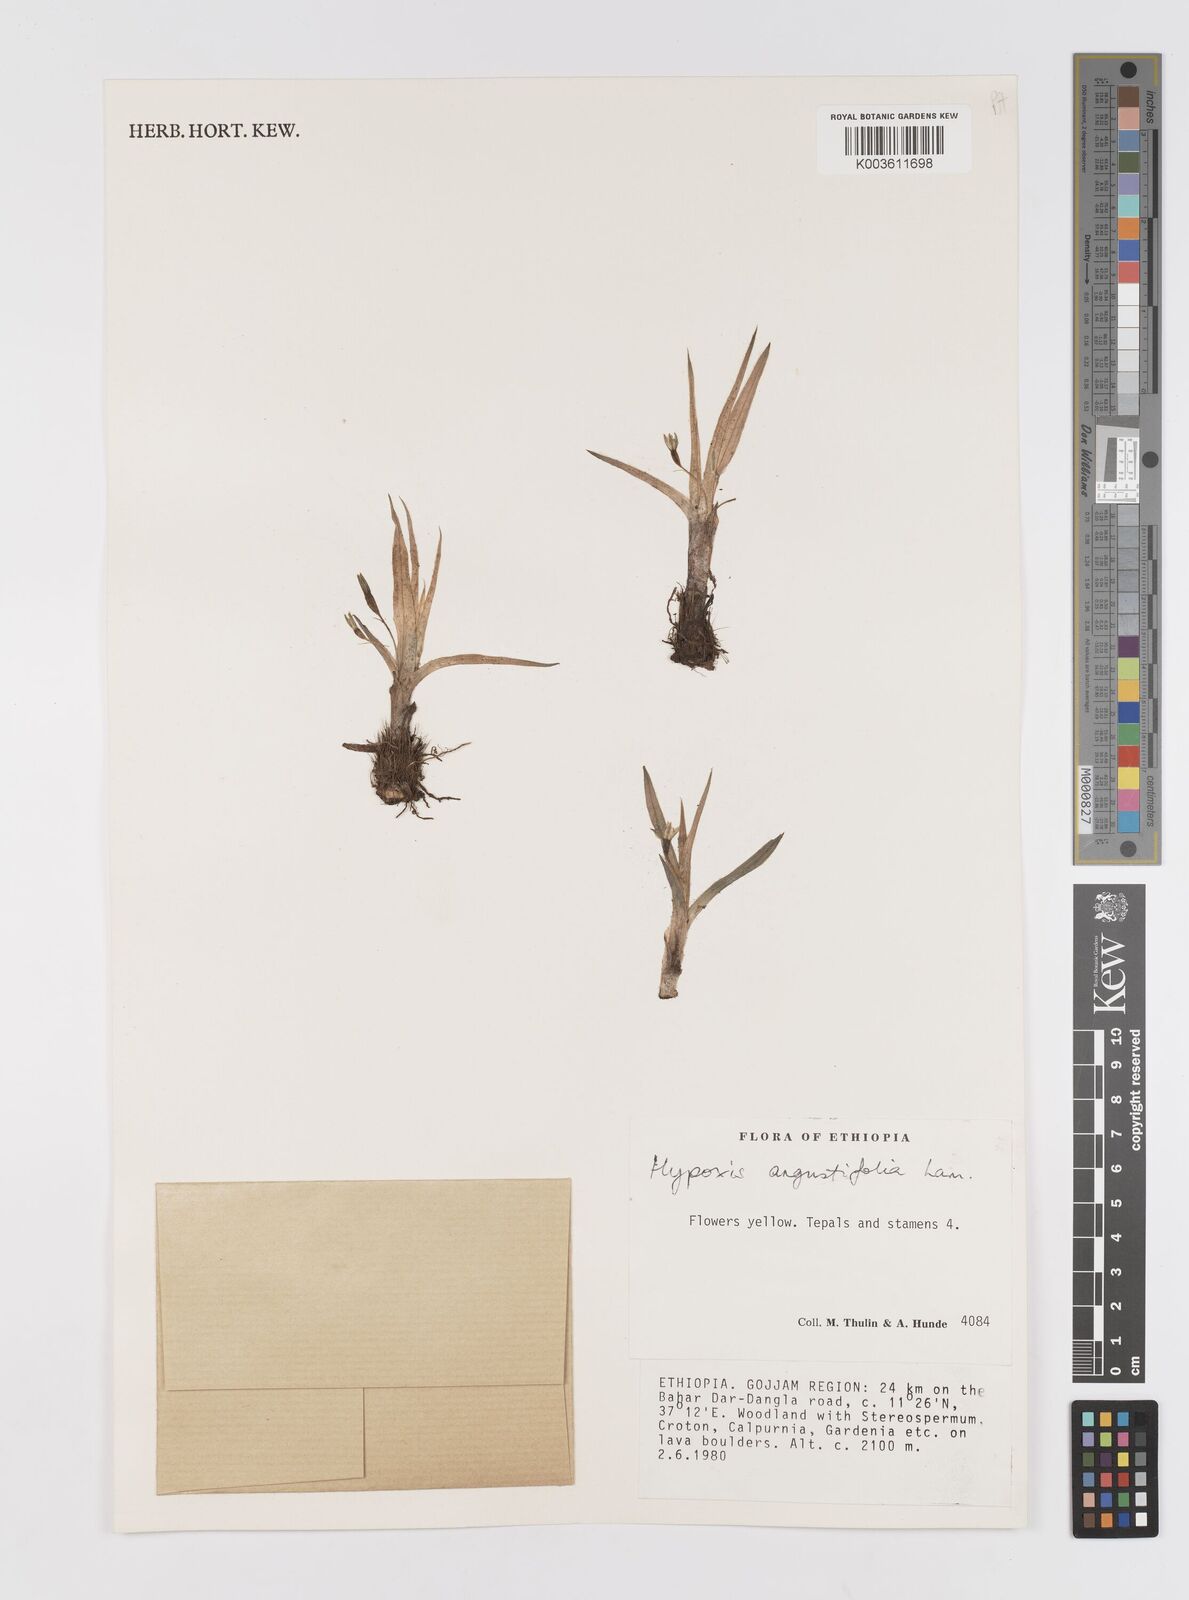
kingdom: Plantae
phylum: Tracheophyta
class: Liliopsida
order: Asparagales
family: Hypoxidaceae
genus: Hypoxis
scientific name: Hypoxis
